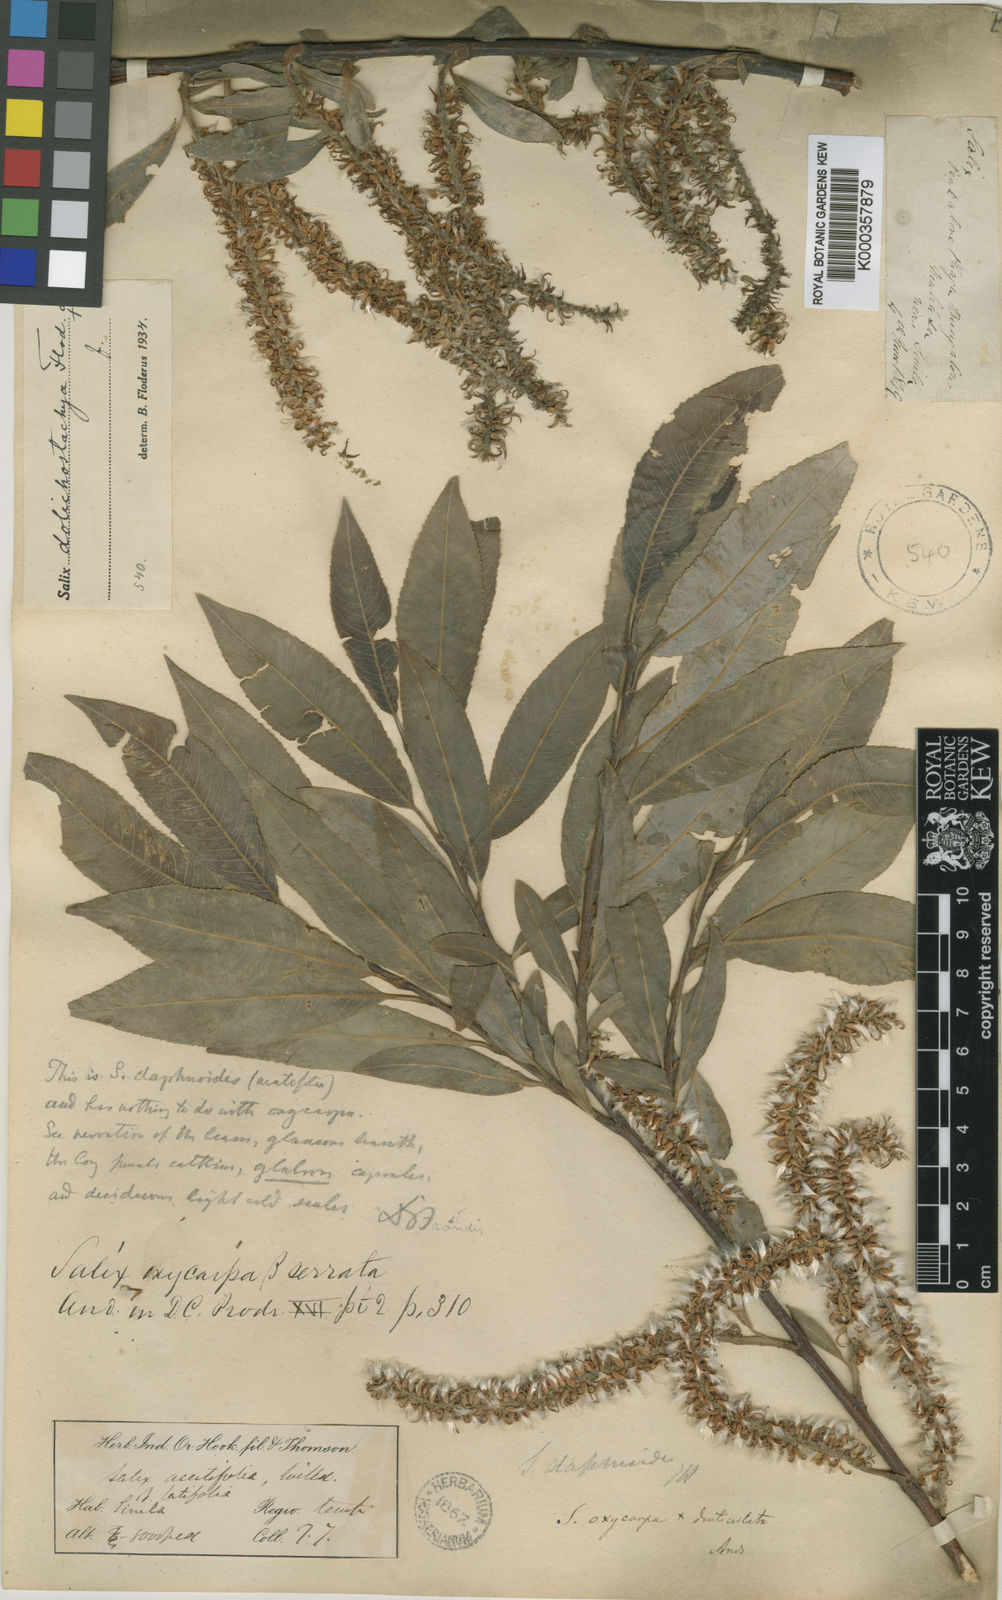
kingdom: Plantae
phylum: Tracheophyta
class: Magnoliopsida
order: Malpighiales
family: Salicaceae
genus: Salix
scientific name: Salix daphnoides
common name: European violet-willow
